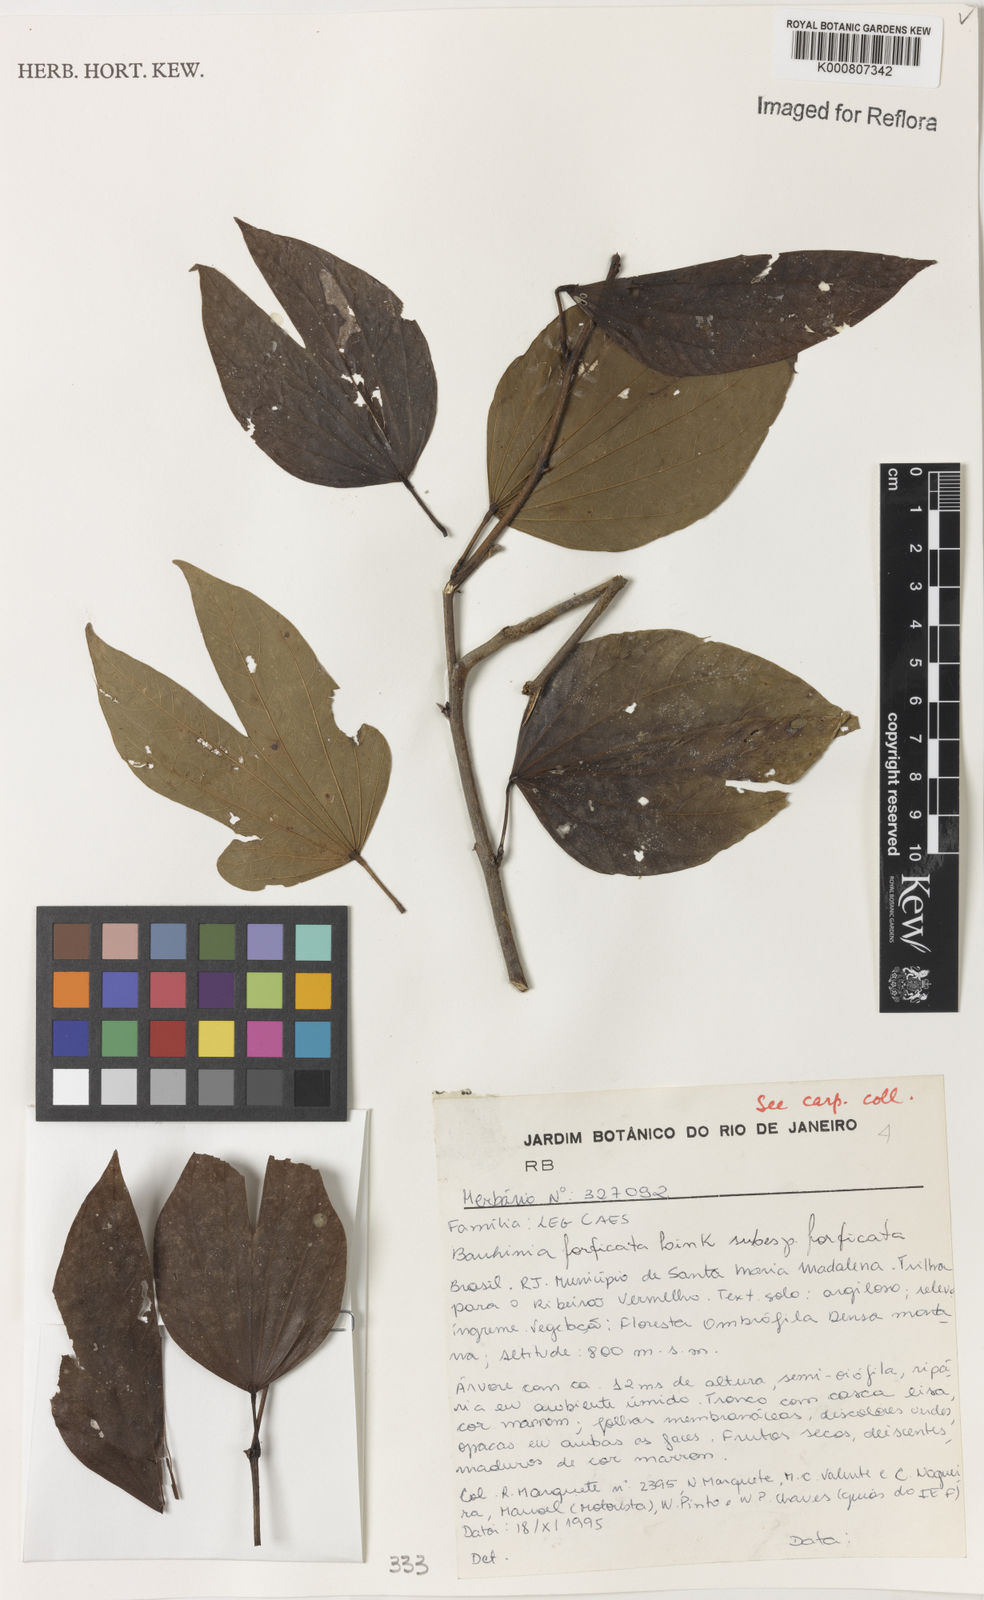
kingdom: Plantae
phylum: Tracheophyta
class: Magnoliopsida
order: Fabales
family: Fabaceae
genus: Bauhinia
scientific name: Bauhinia forficata
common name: Orchid tree
